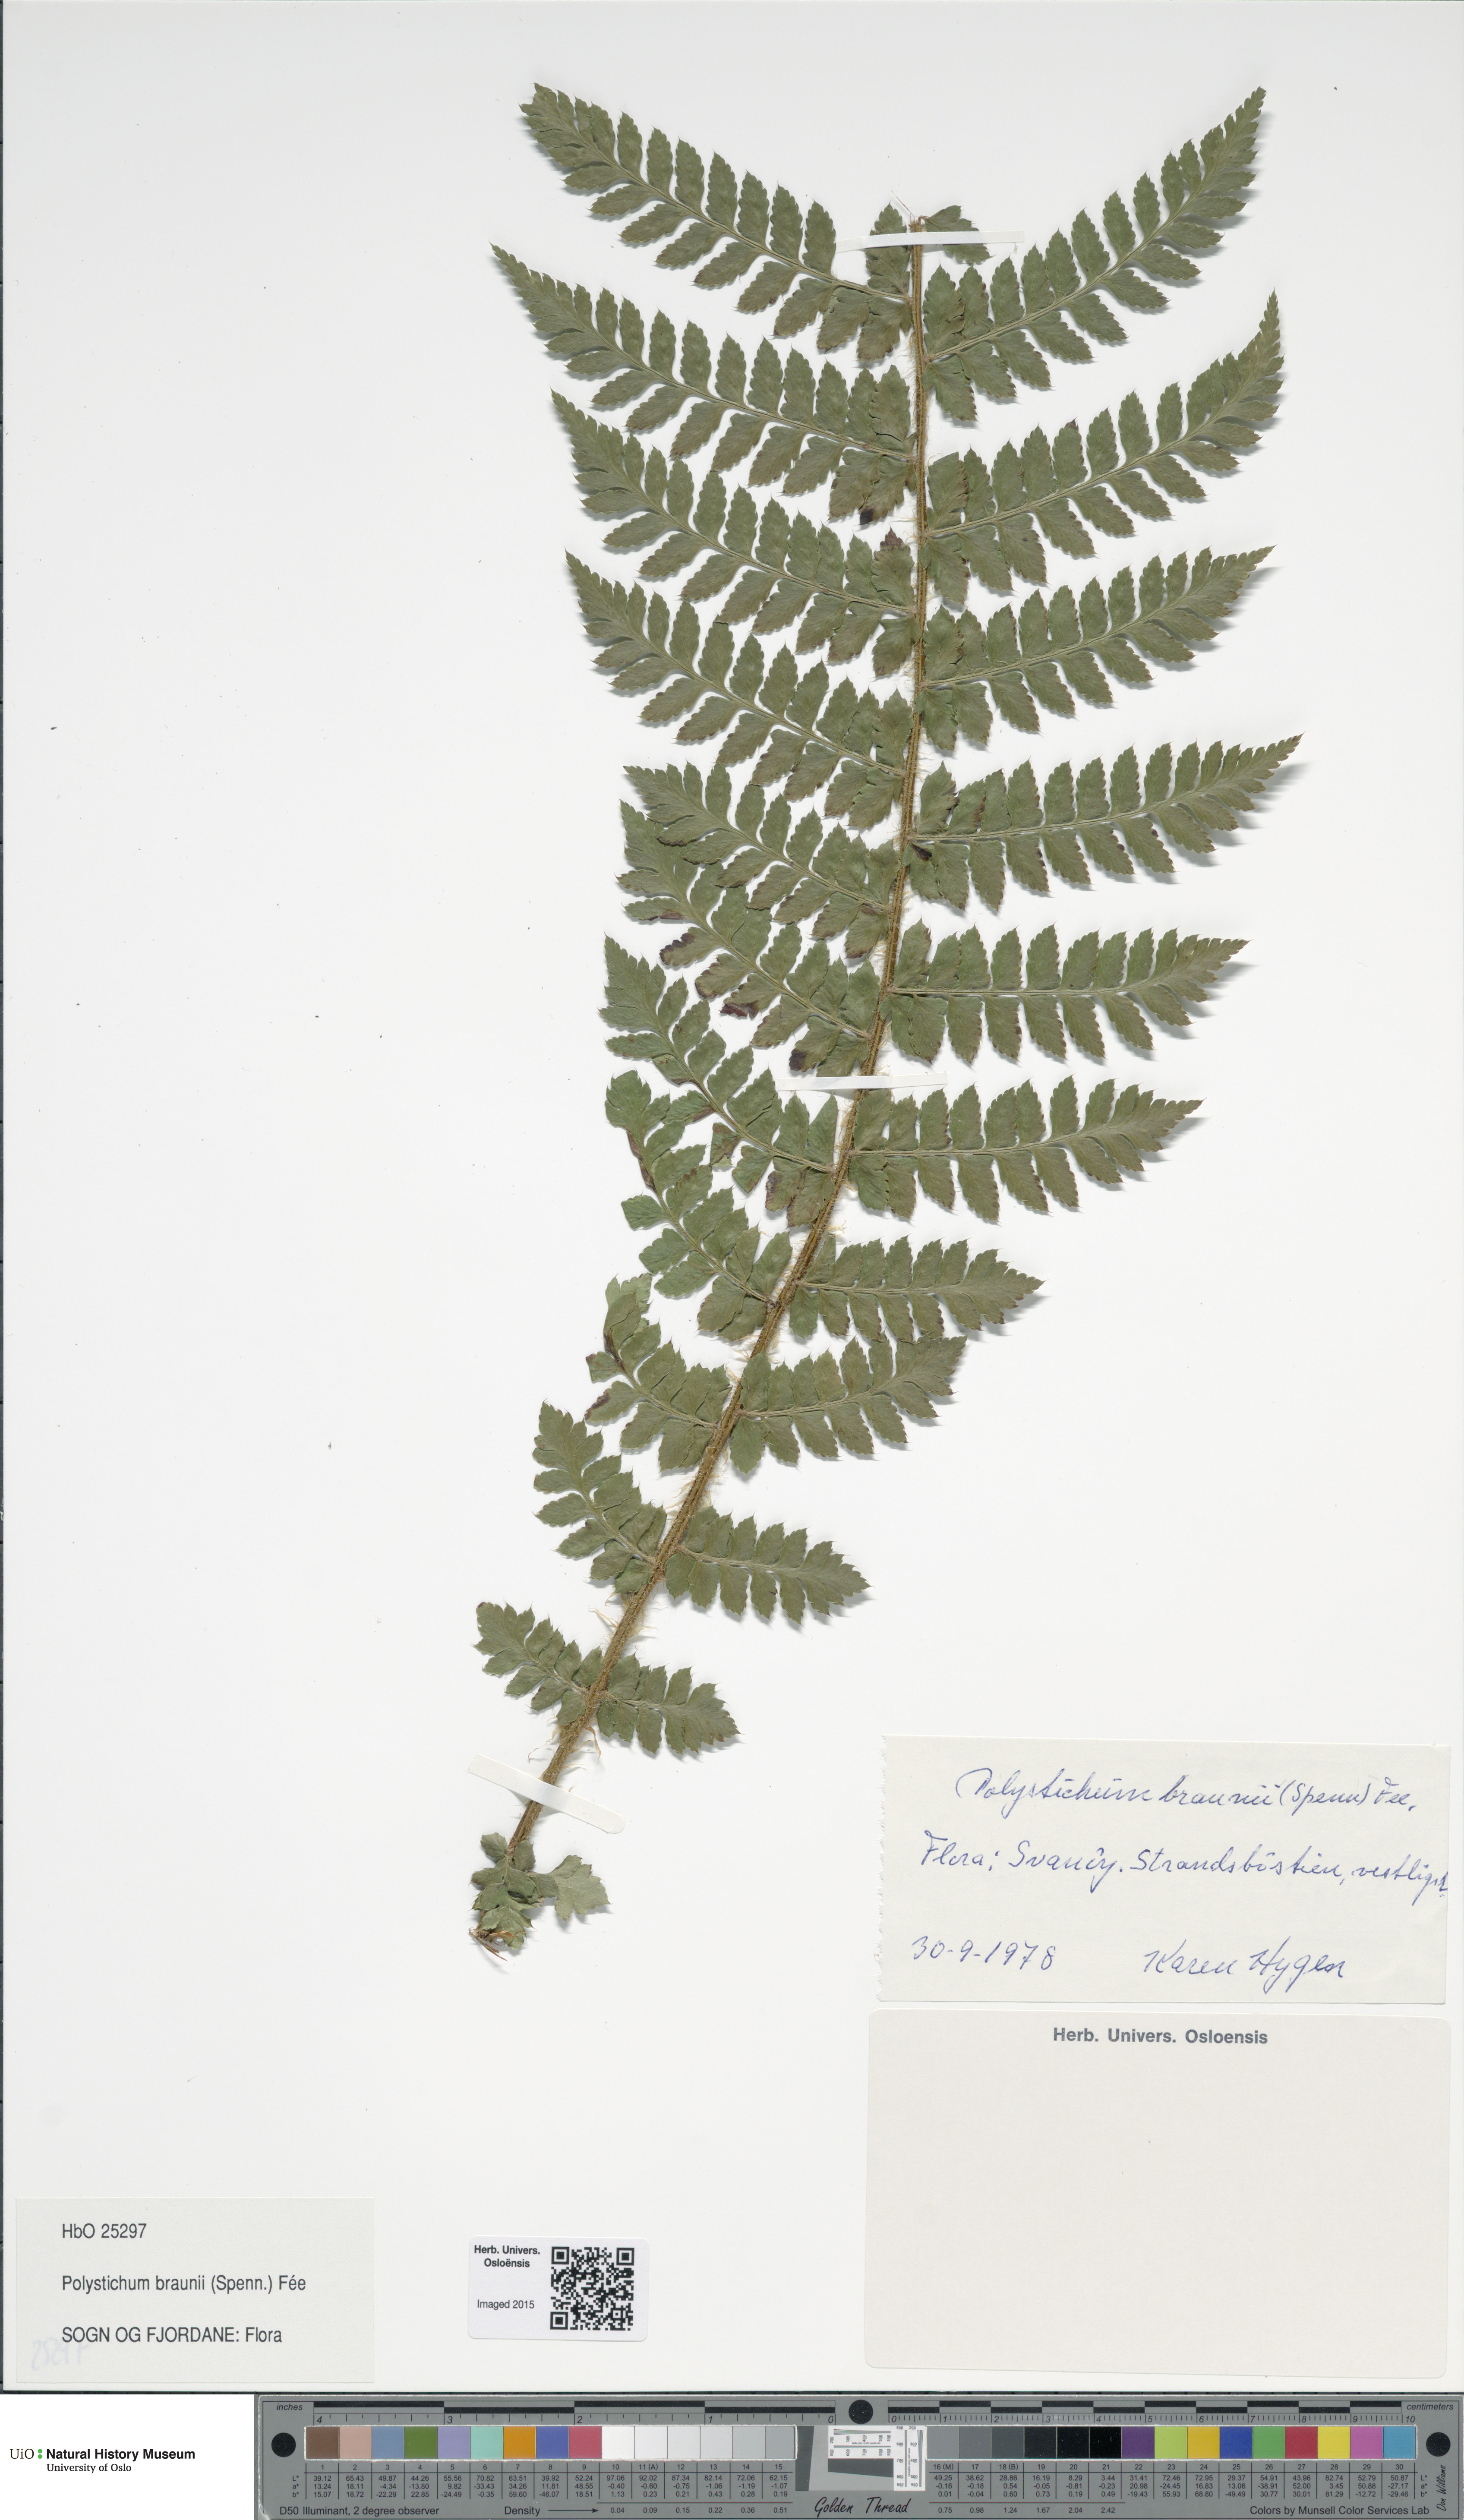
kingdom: Plantae
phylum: Tracheophyta
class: Polypodiopsida
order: Polypodiales
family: Dryopteridaceae
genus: Polystichum
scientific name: Polystichum braunii
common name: Braun's holly fern
